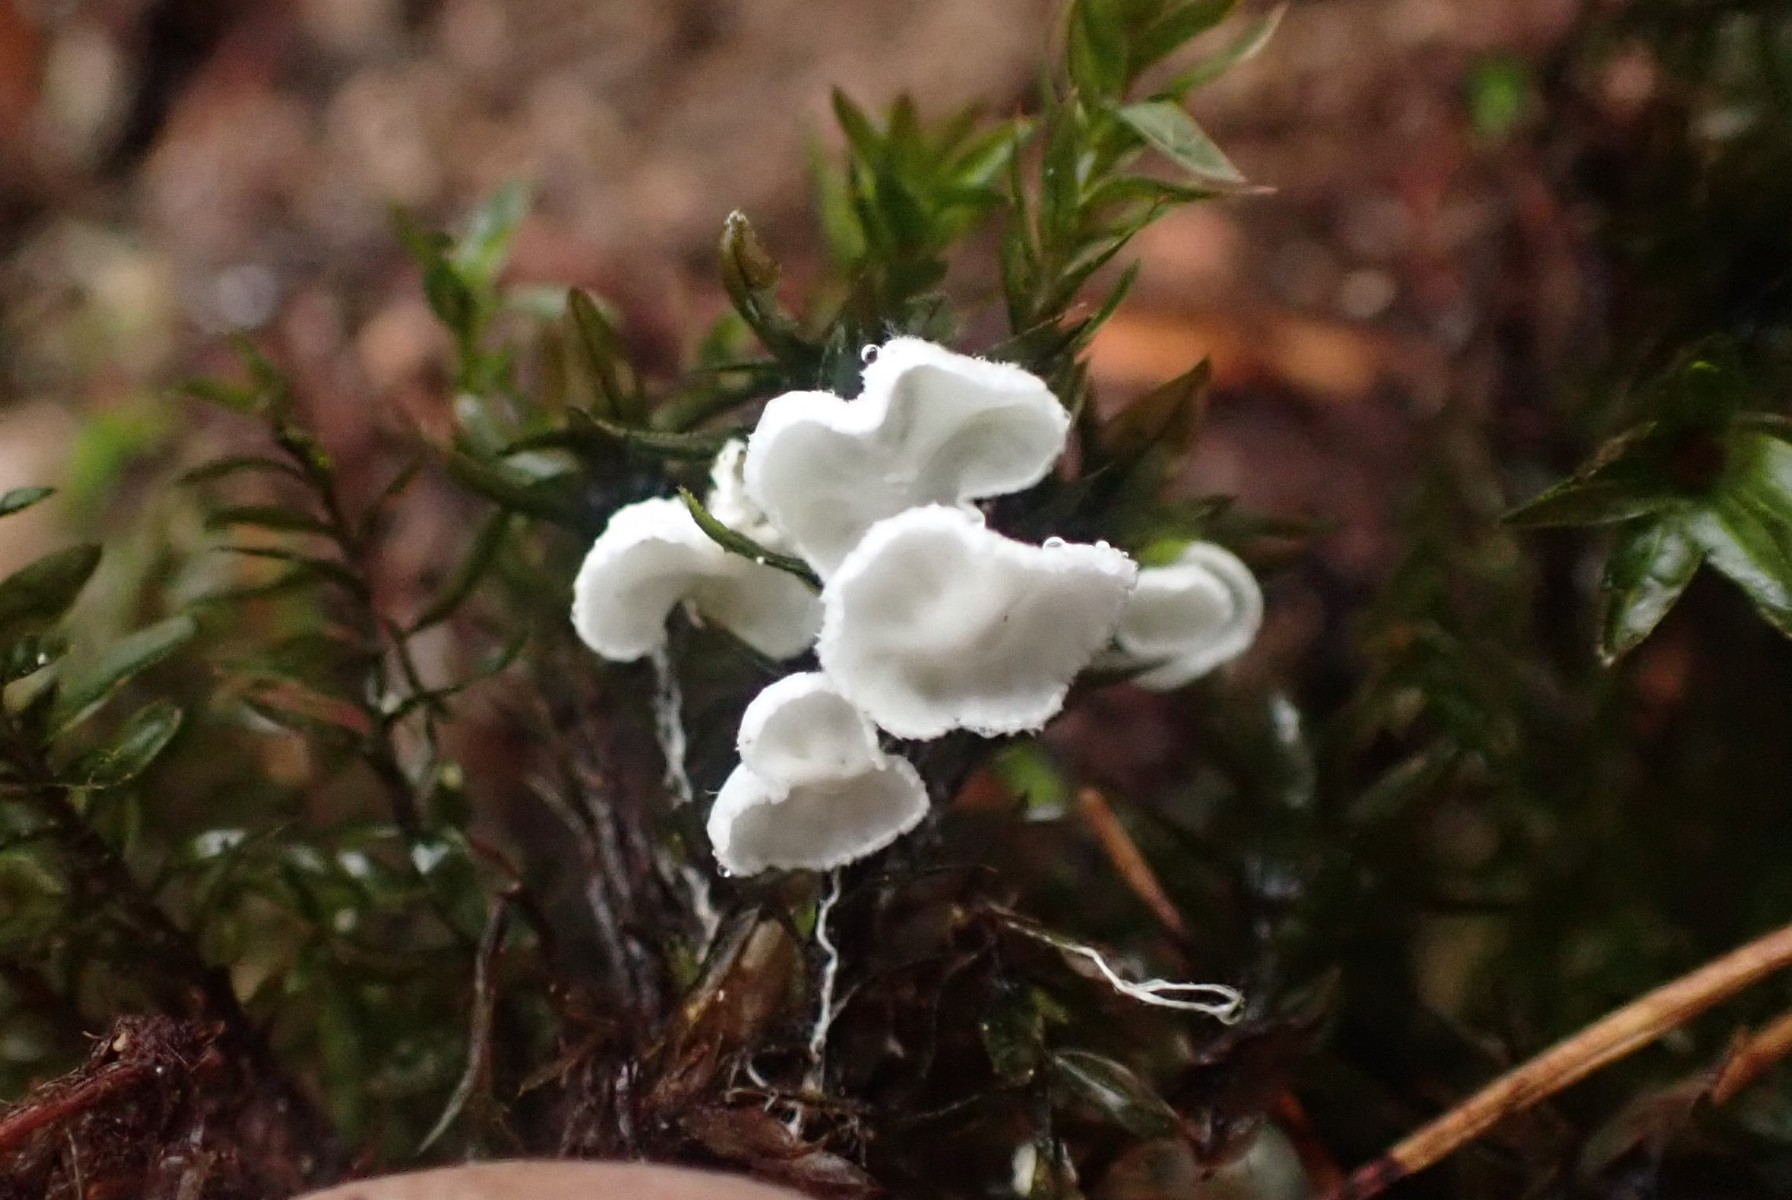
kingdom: Fungi
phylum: Basidiomycota
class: Agaricomycetes
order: Agaricales
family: Tricholomataceae
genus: Rimbachia
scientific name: Rimbachia arachnoidea
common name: Almindelig mosskål
